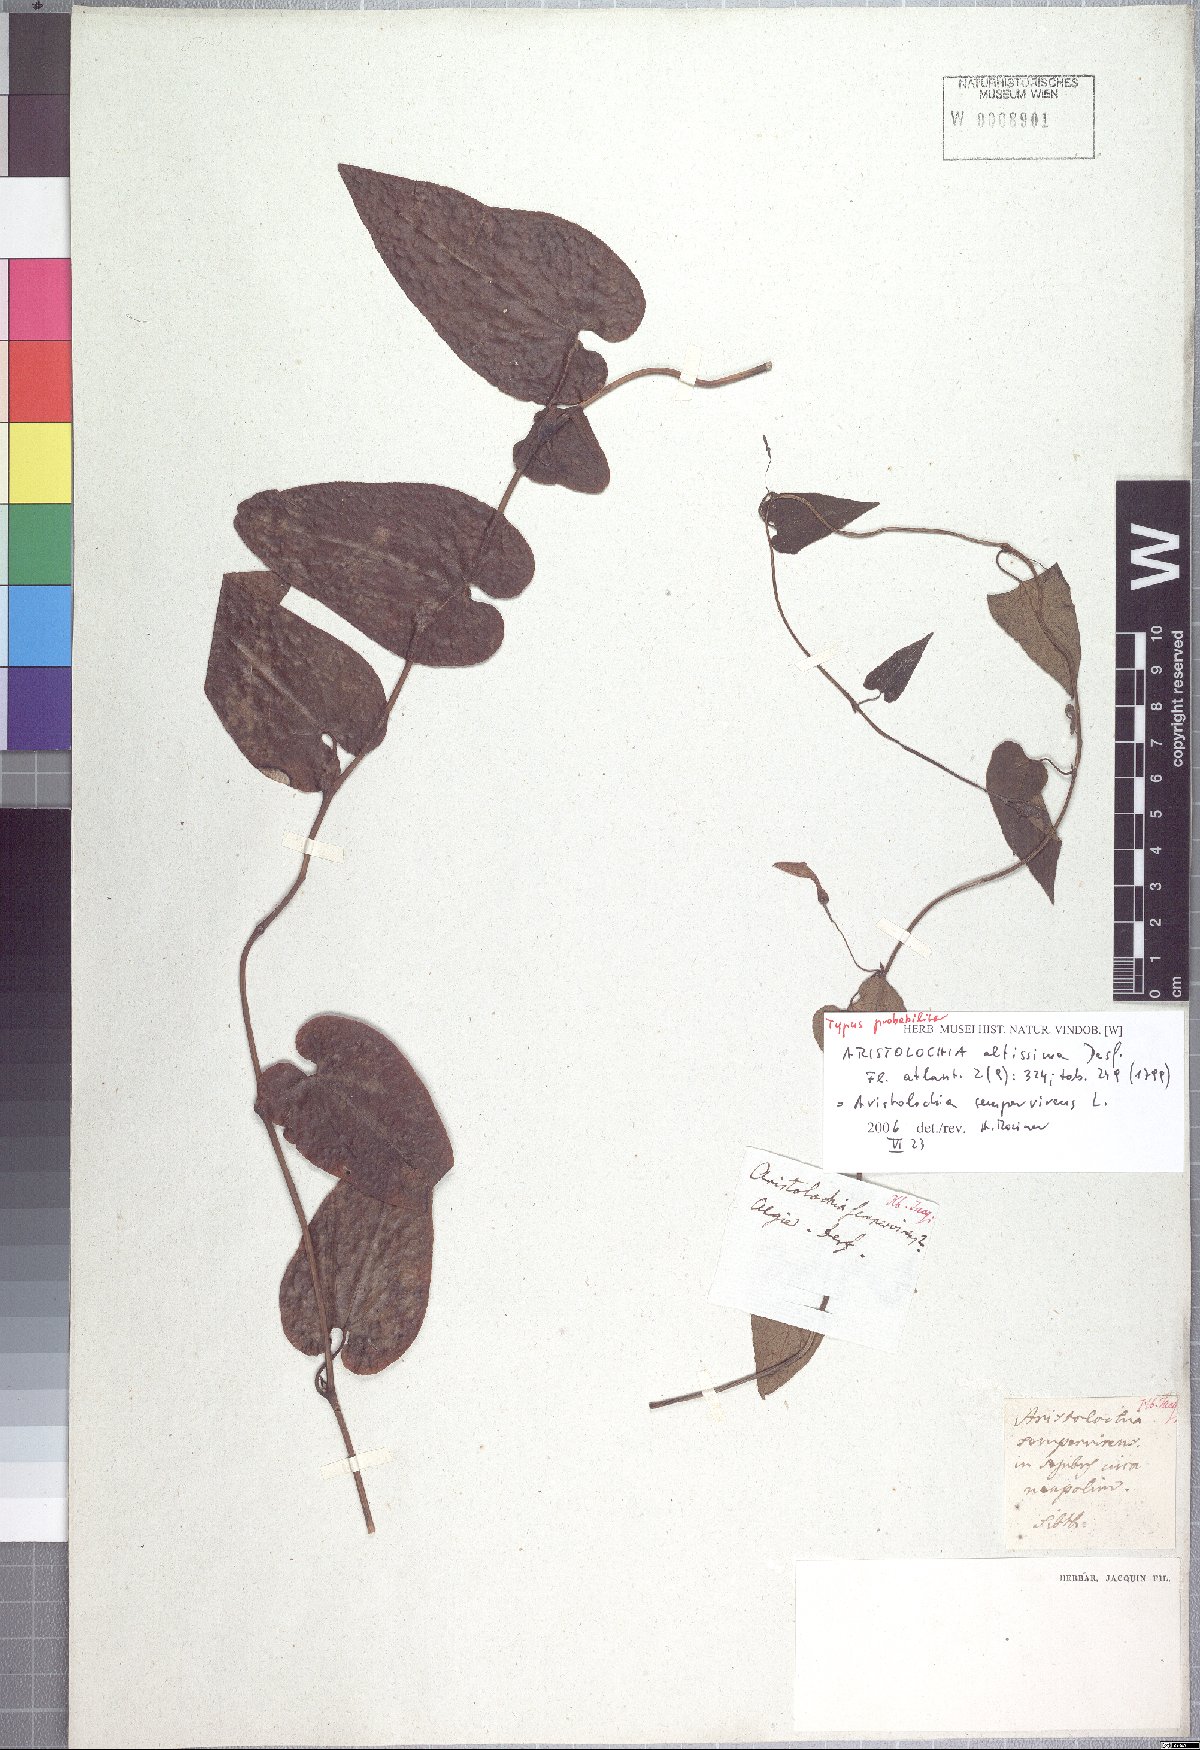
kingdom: Plantae
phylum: Tracheophyta
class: Magnoliopsida
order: Piperales
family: Aristolochiaceae
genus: Aristolochia
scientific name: Aristolochia sempervirens
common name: Long birthwort
